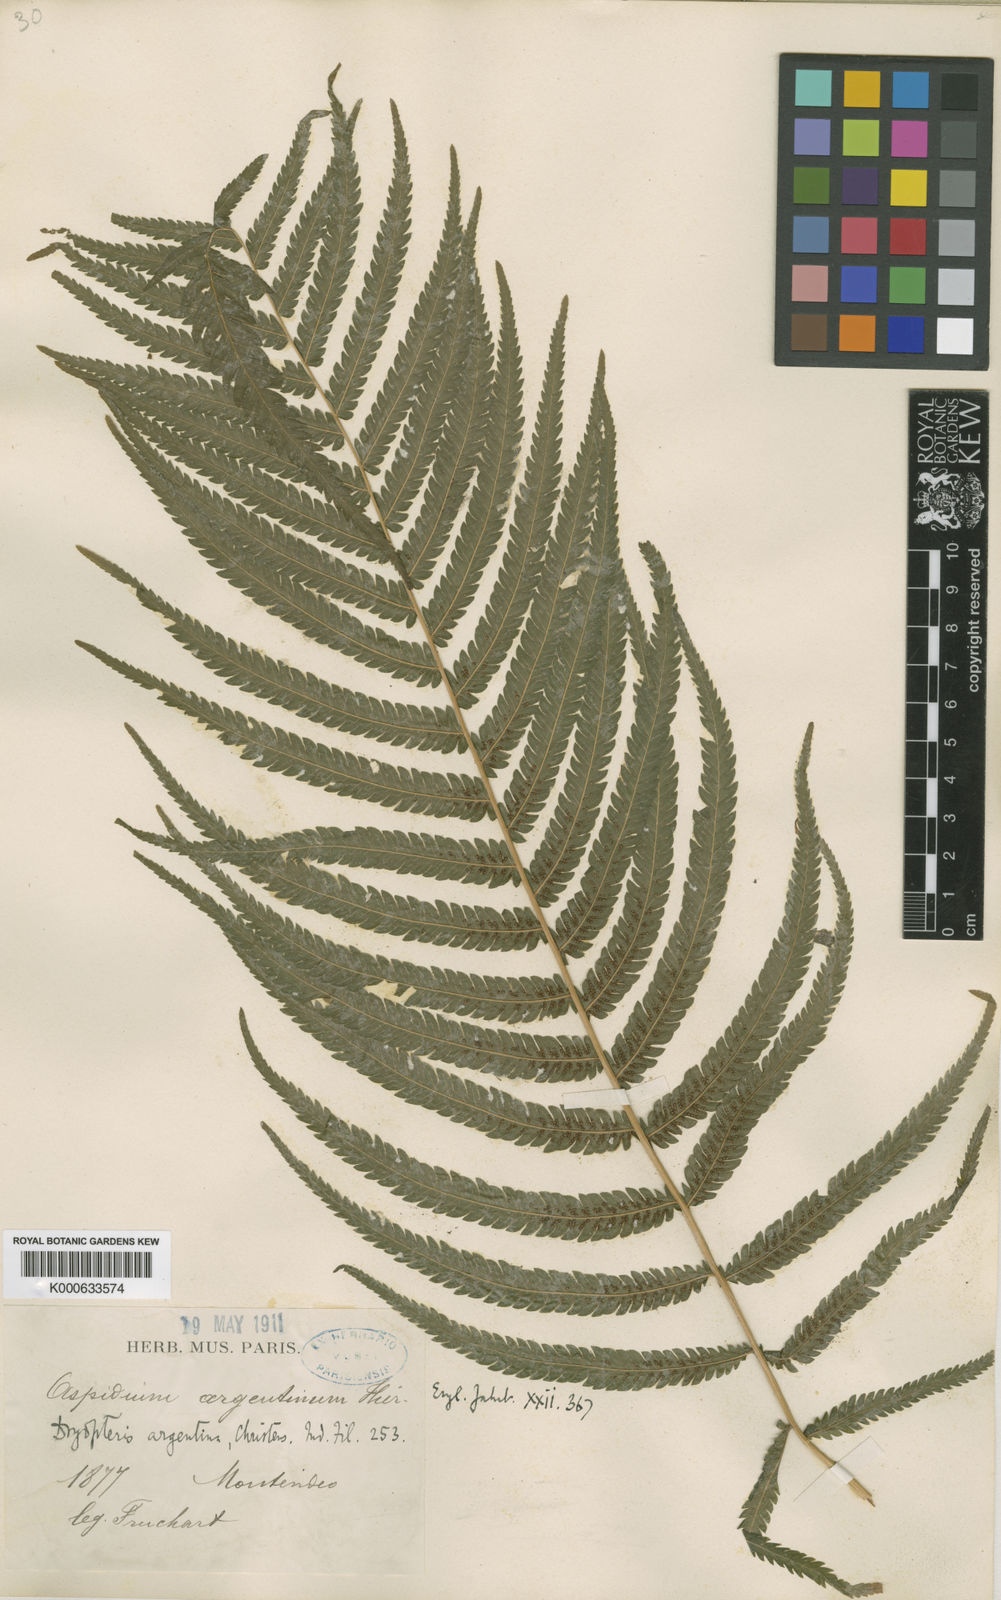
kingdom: Plantae
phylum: Tracheophyta
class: Polypodiopsida
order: Polypodiales
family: Thelypteridaceae
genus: Amauropelta
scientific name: Amauropelta argentina
